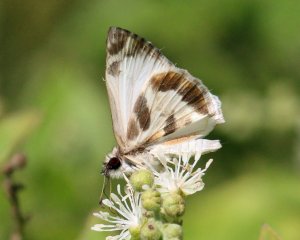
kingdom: Animalia
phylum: Arthropoda
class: Insecta
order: Lepidoptera
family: Hesperiidae
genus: Heliopetes
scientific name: Heliopetes macaira
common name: Turk's-cap White-Skipper
